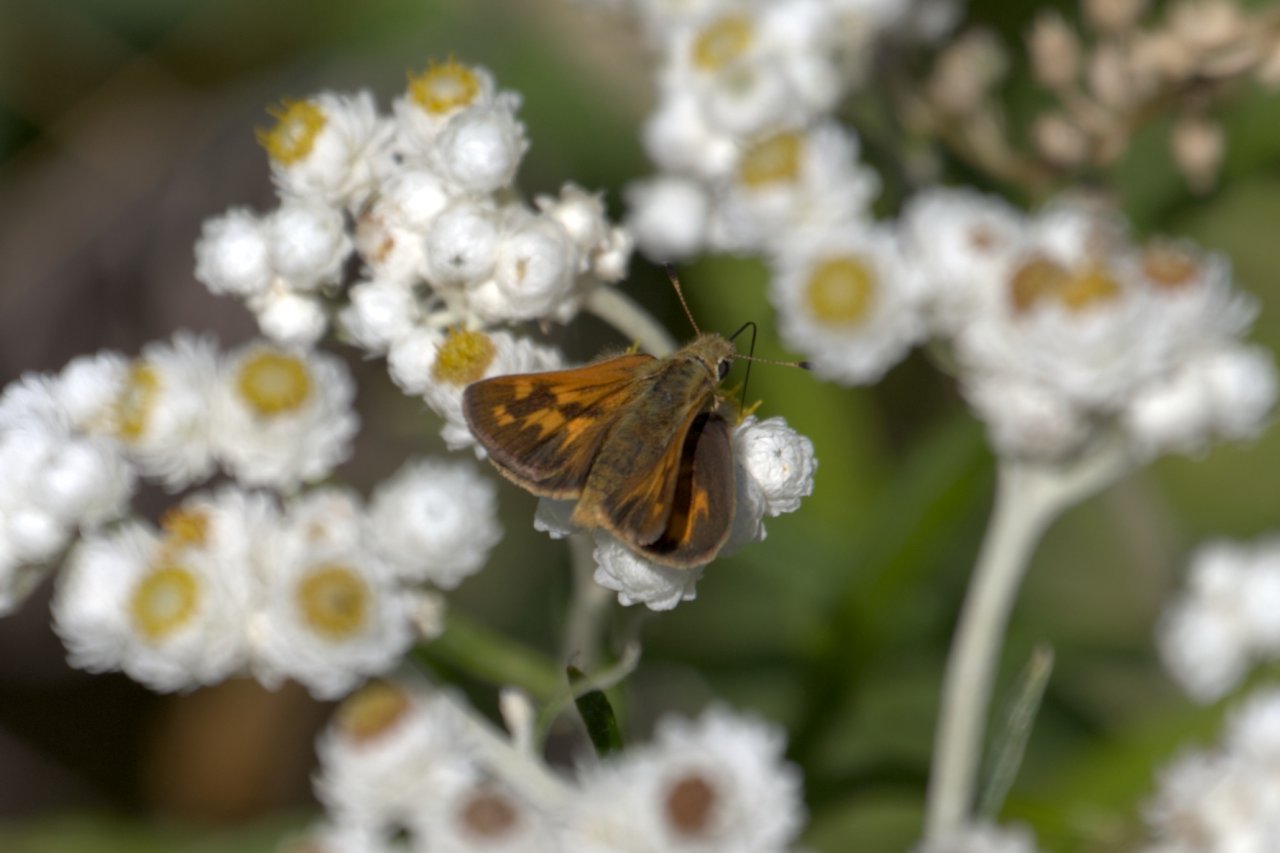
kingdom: Animalia
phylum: Arthropoda
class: Insecta
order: Lepidoptera
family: Hesperiidae
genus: Ochlodes
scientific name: Ochlodes sylvanoides
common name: Woodland Skipper
